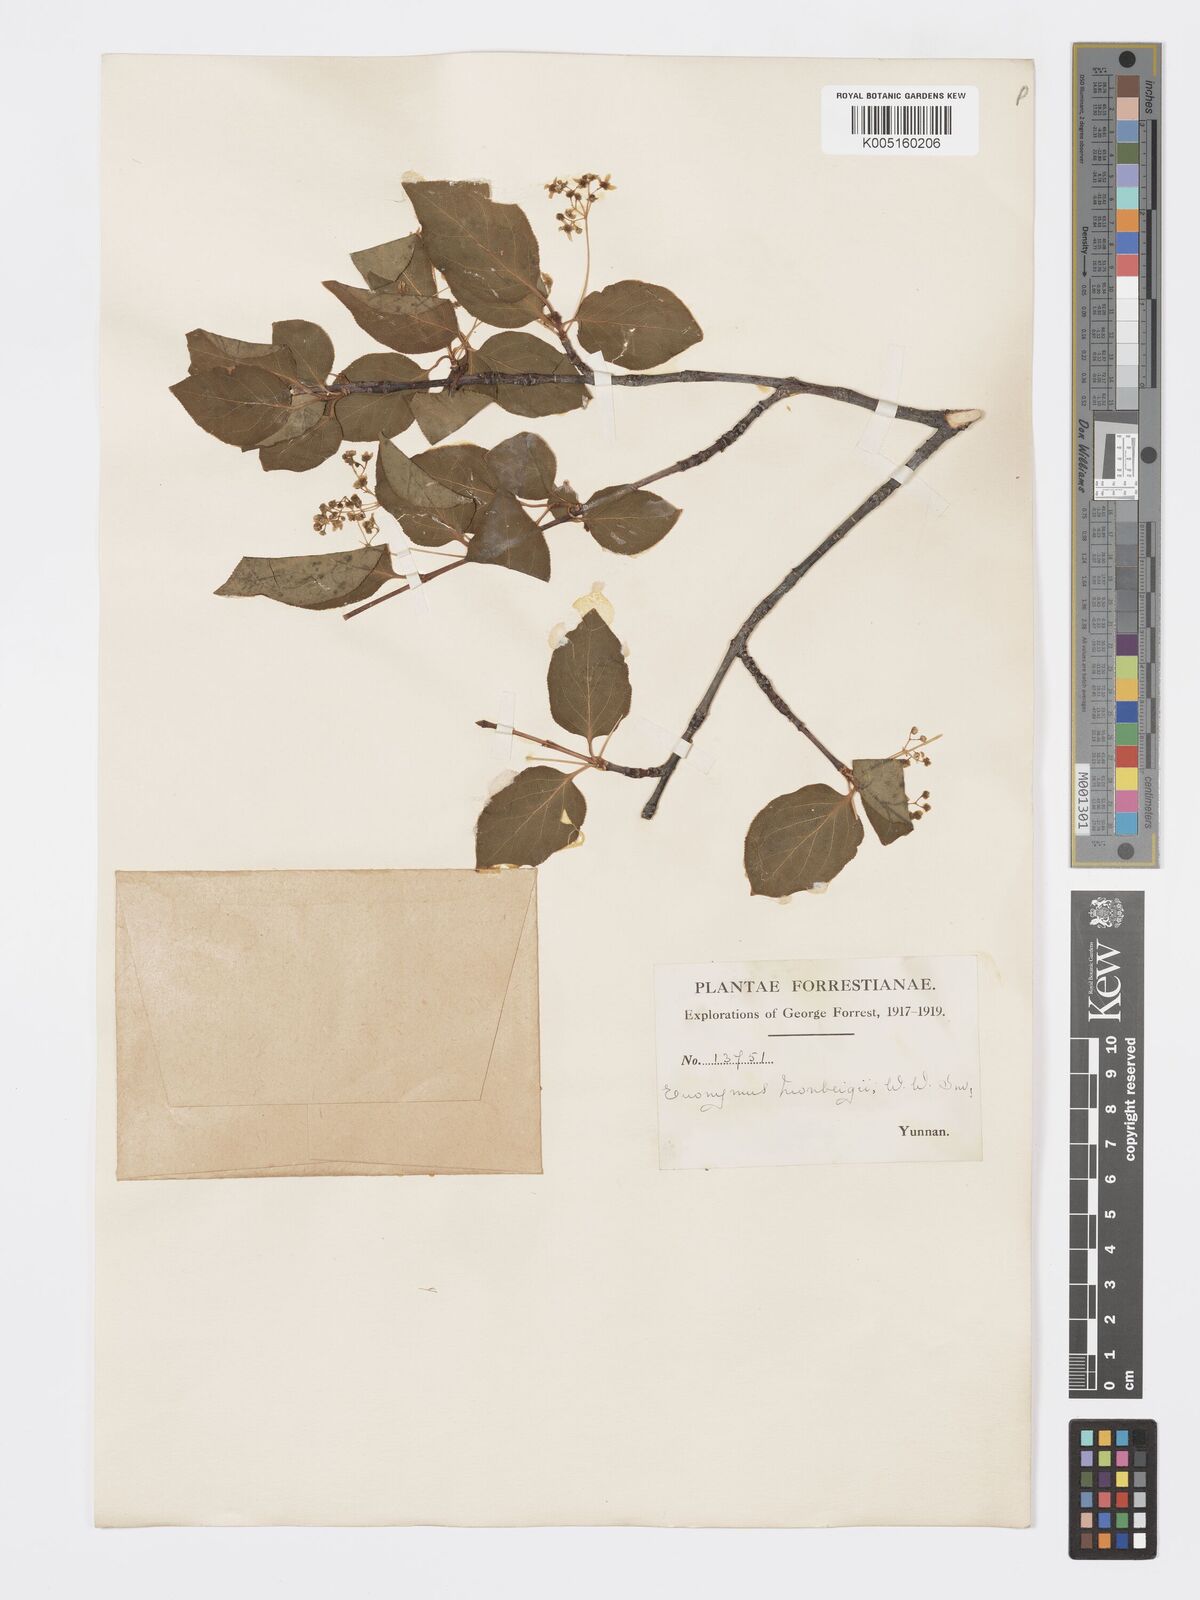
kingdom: Plantae
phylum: Tracheophyta
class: Magnoliopsida
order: Celastrales
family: Celastraceae
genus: Euonymus
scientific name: Euonymus sanguineus
